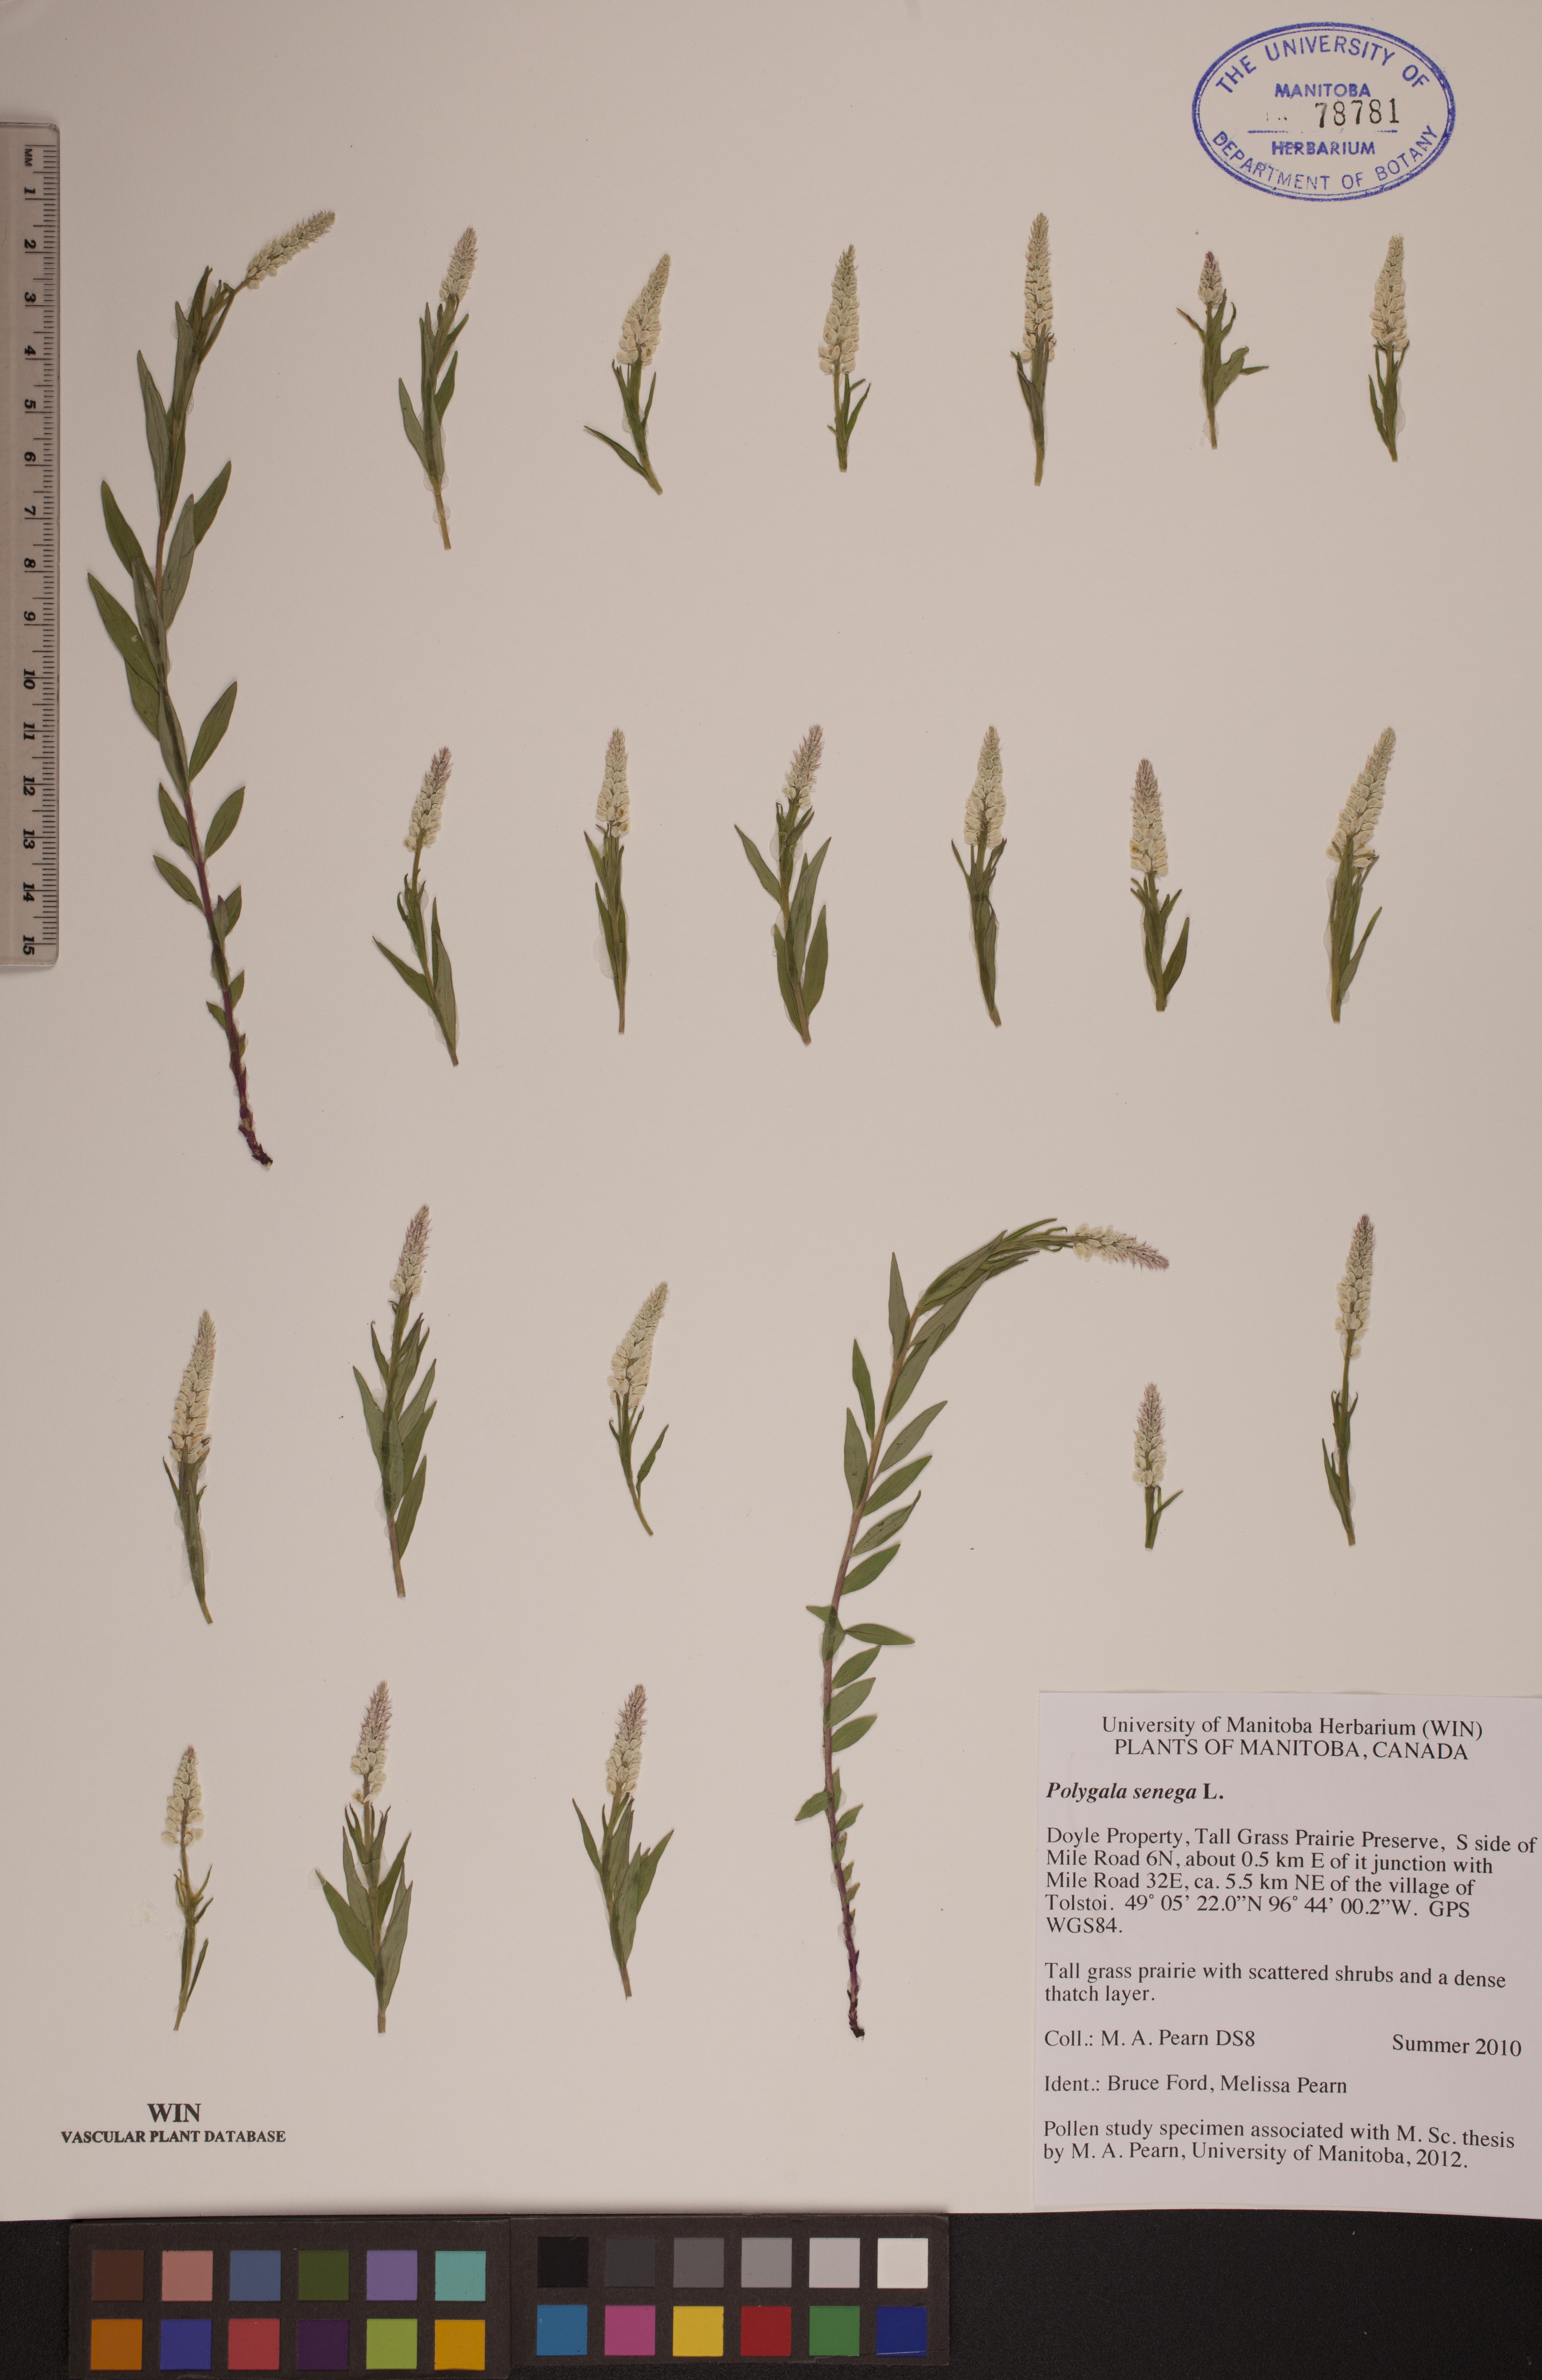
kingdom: Plantae
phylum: Tracheophyta
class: Magnoliopsida
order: Fabales
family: Polygalaceae
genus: Polygala
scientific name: Polygala senega
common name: Seneca snakeroot
